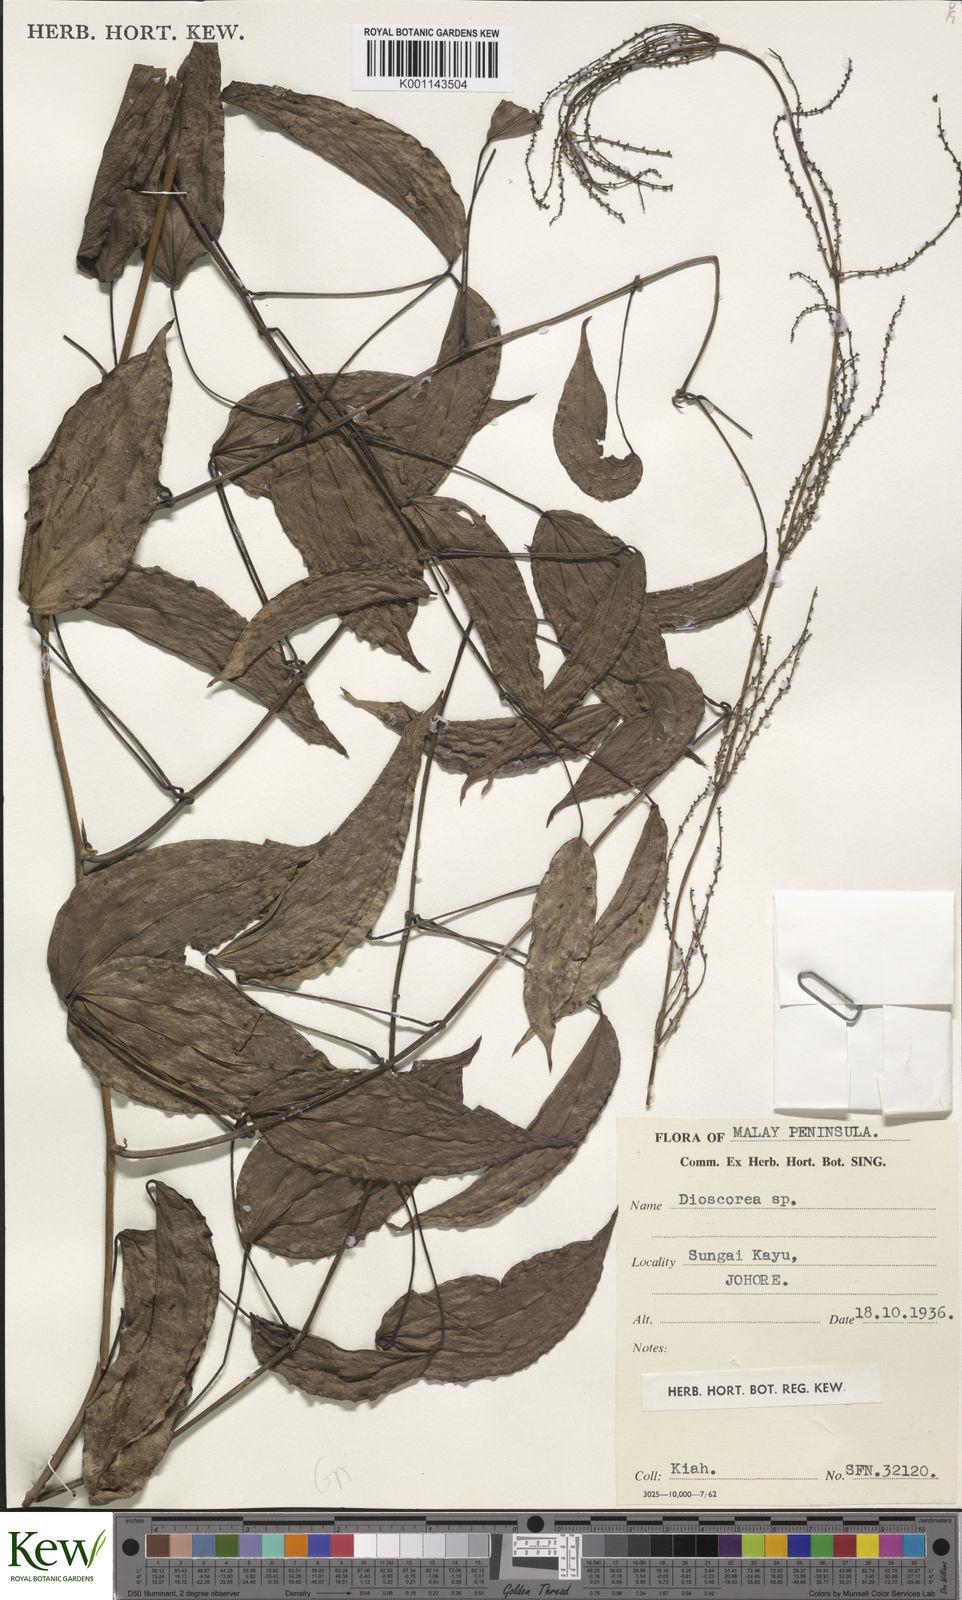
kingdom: Plantae
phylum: Tracheophyta
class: Liliopsida
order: Dioscoreales
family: Dioscoreaceae
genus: Dioscorea
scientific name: Dioscorea
